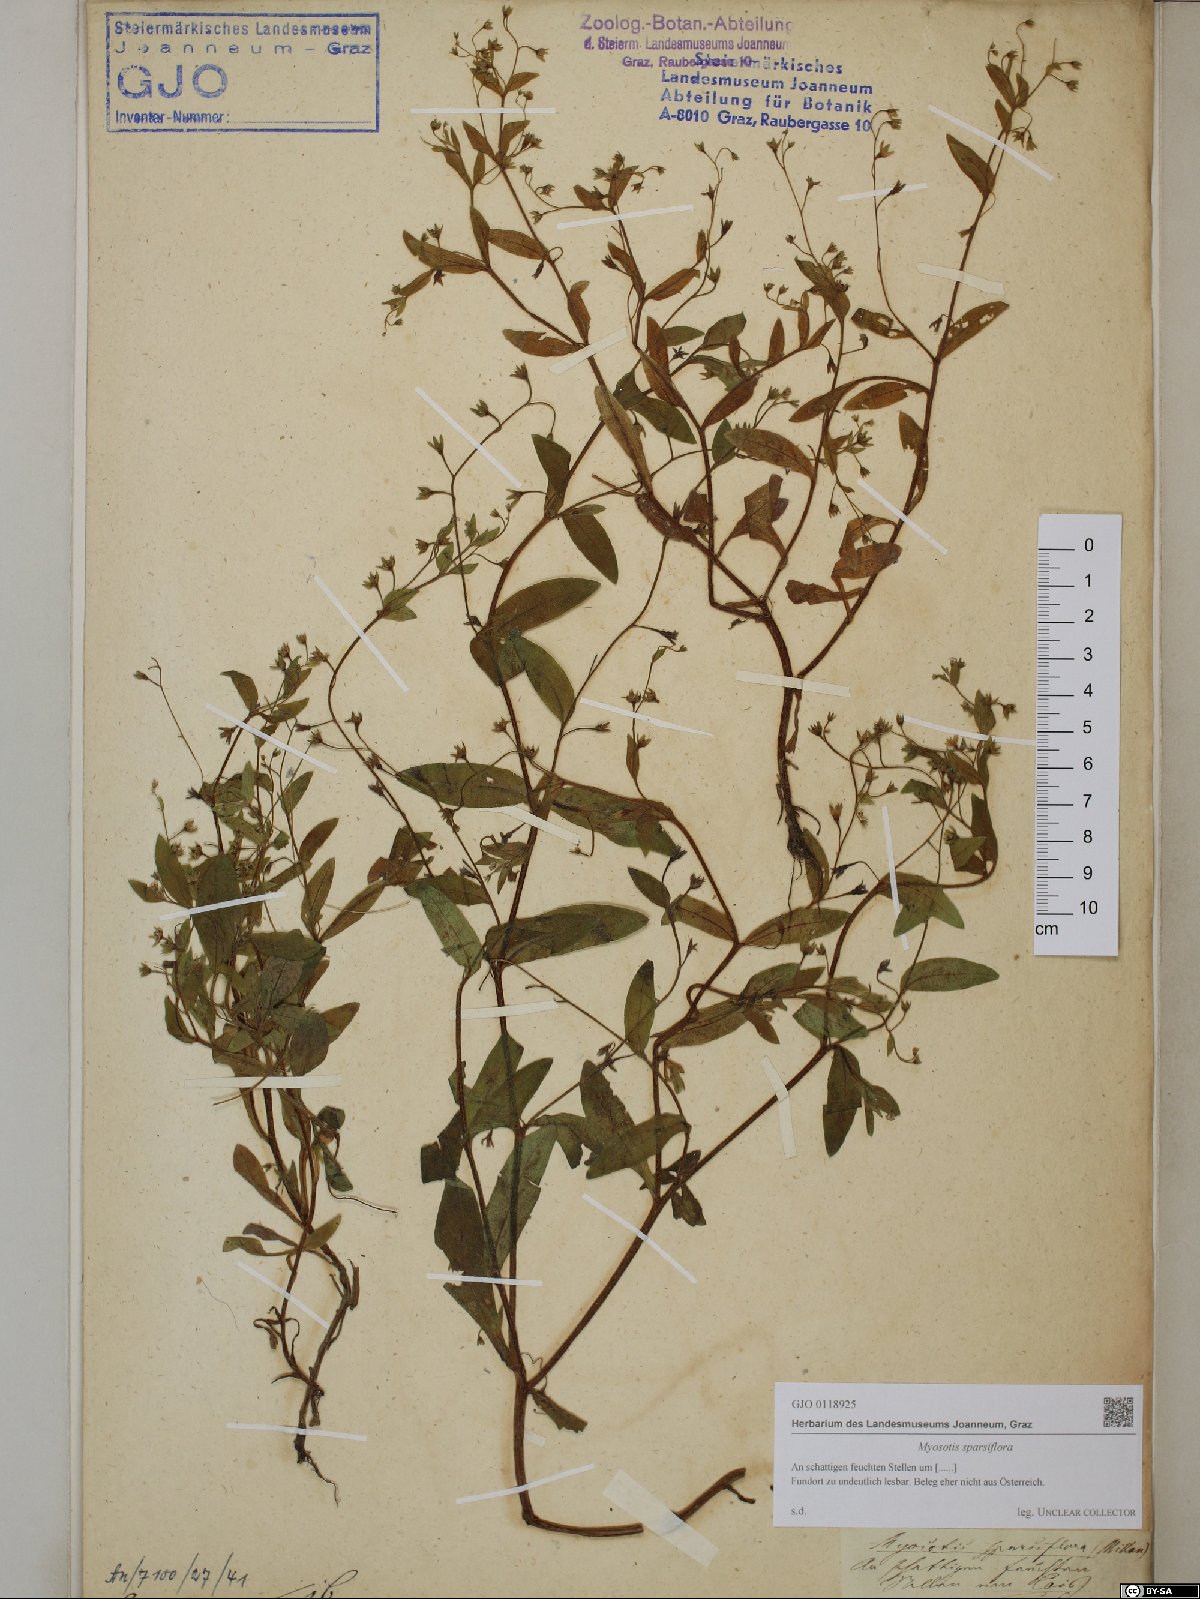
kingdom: Plantae
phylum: Tracheophyta
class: Magnoliopsida
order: Boraginales
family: Boraginaceae
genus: Myosotis
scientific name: Myosotis sparsiflora
